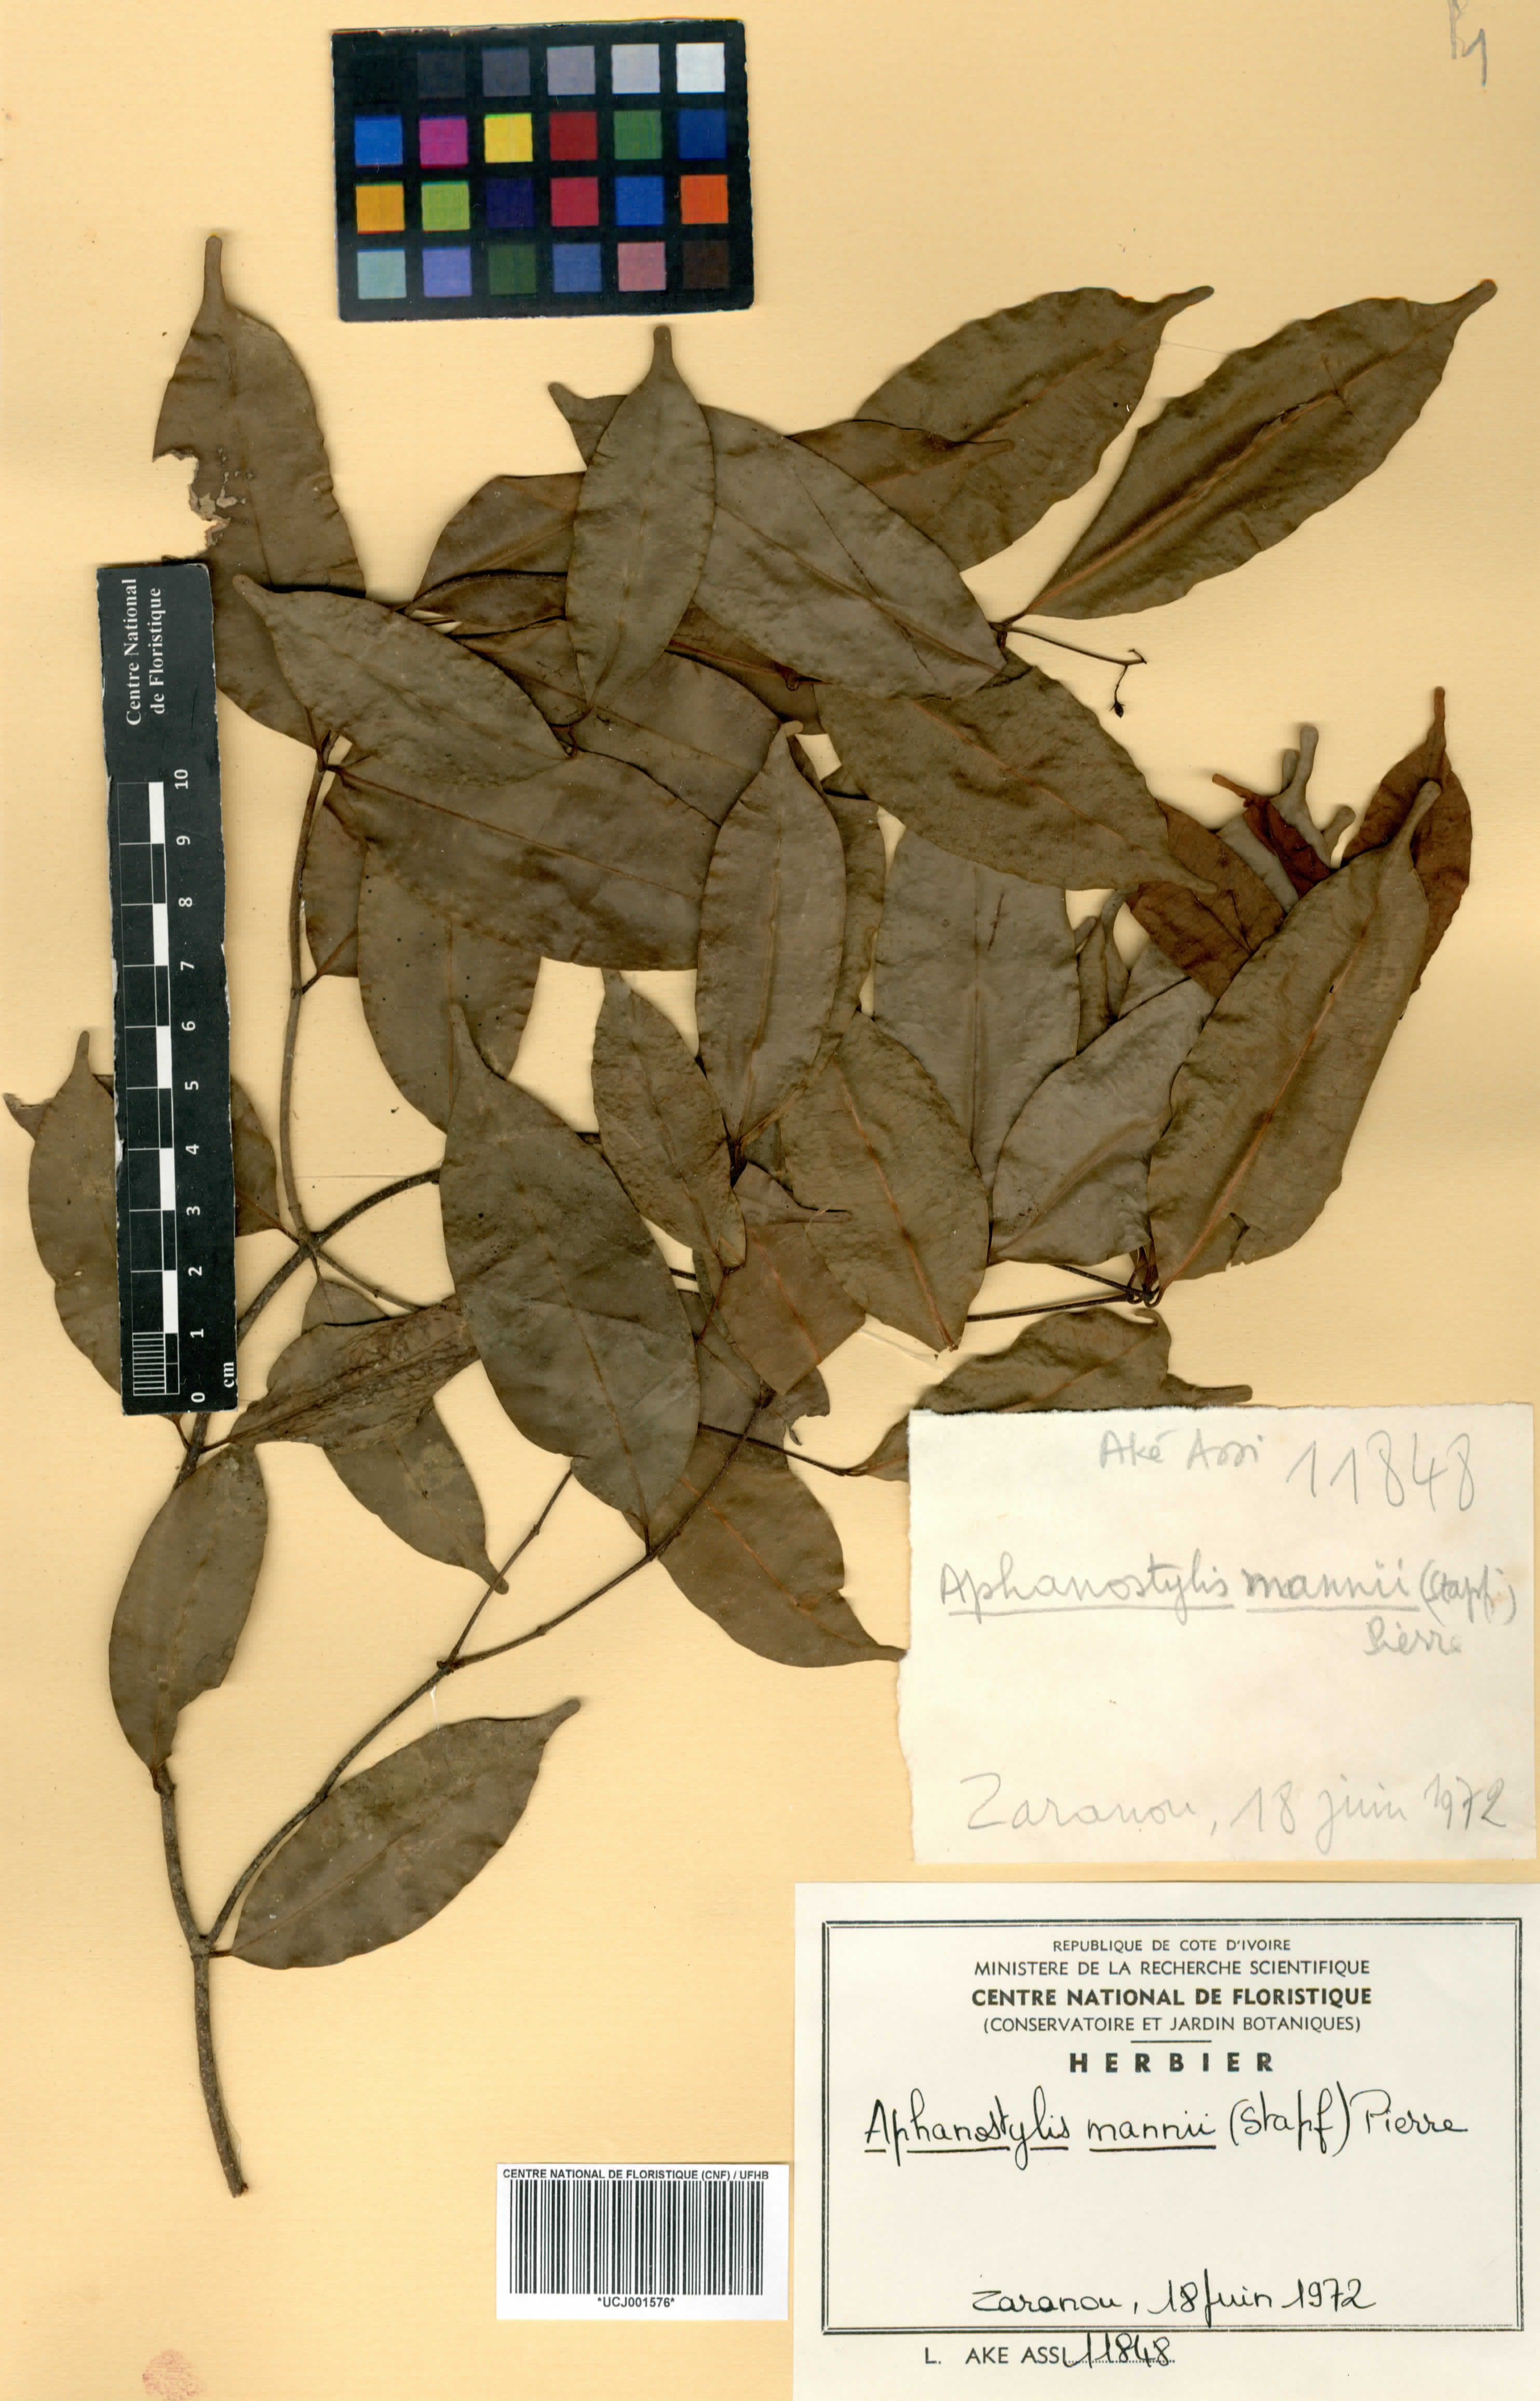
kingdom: Plantae
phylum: Tracheophyta
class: Magnoliopsida
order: Gentianales
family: Apocynaceae
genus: Landolphia
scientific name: Landolphia incerta
